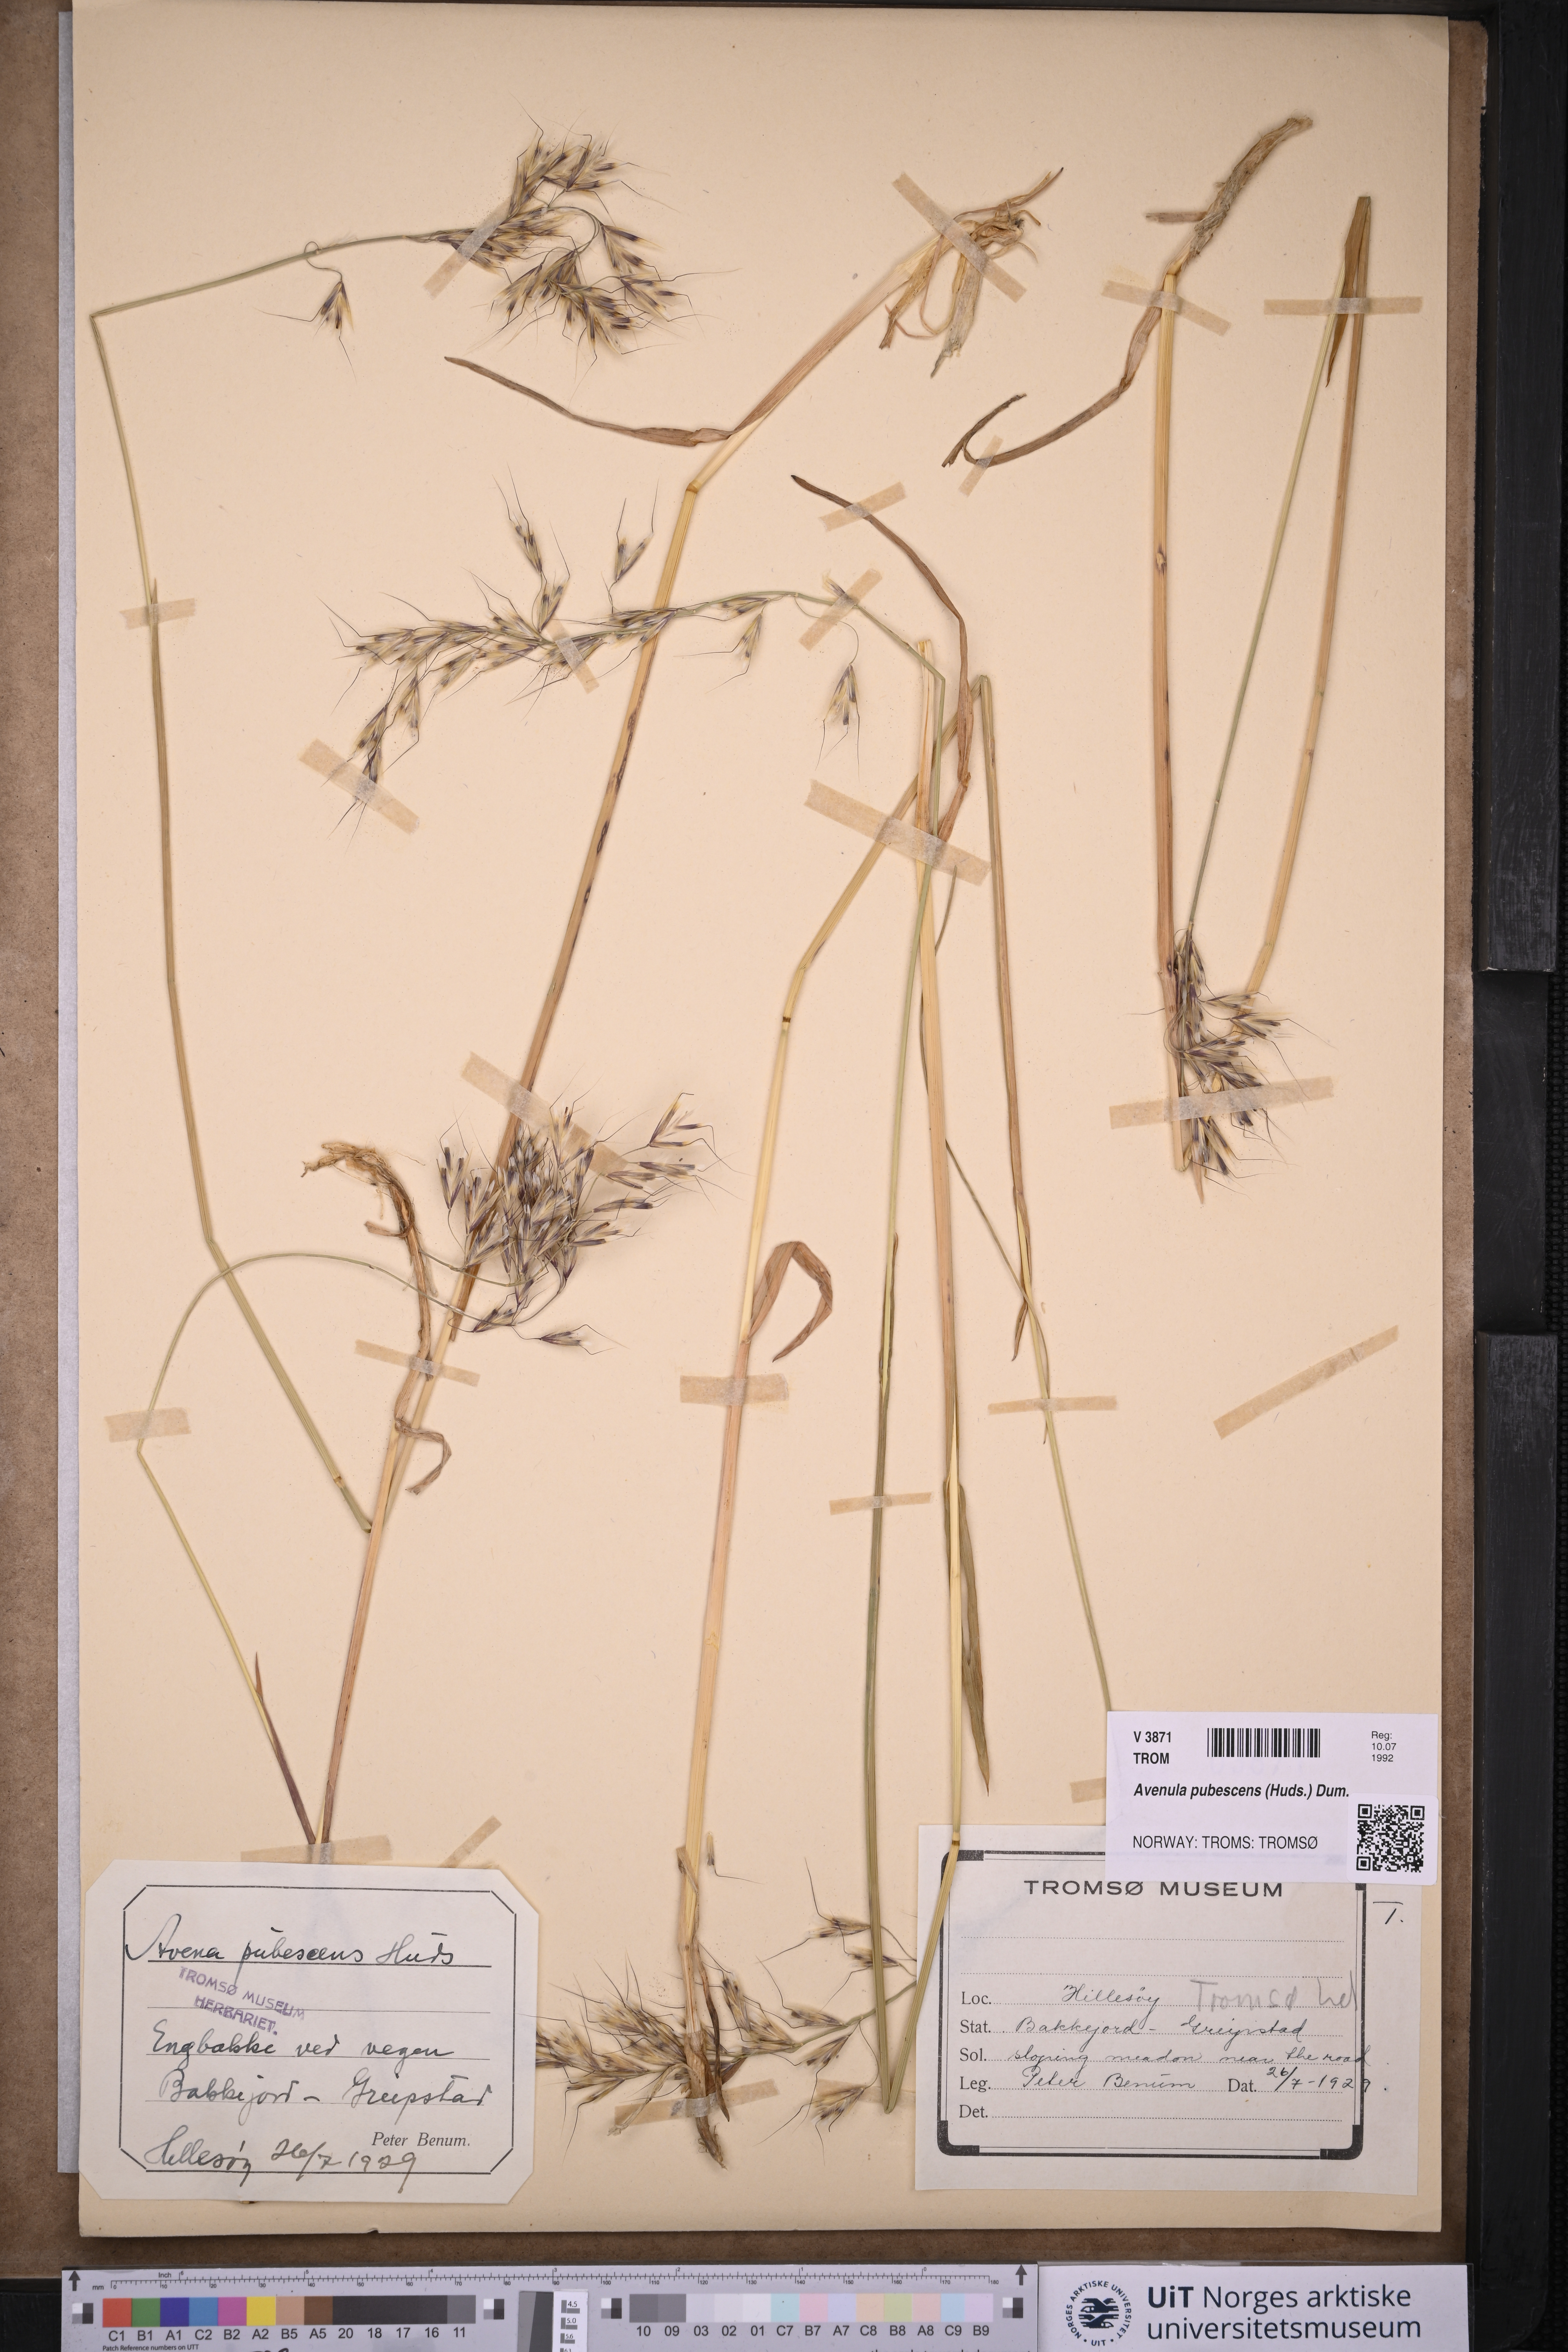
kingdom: Plantae
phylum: Tracheophyta
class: Liliopsida
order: Poales
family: Poaceae
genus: Avenula
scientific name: Avenula pubescens
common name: Downy alpine oatgrass
